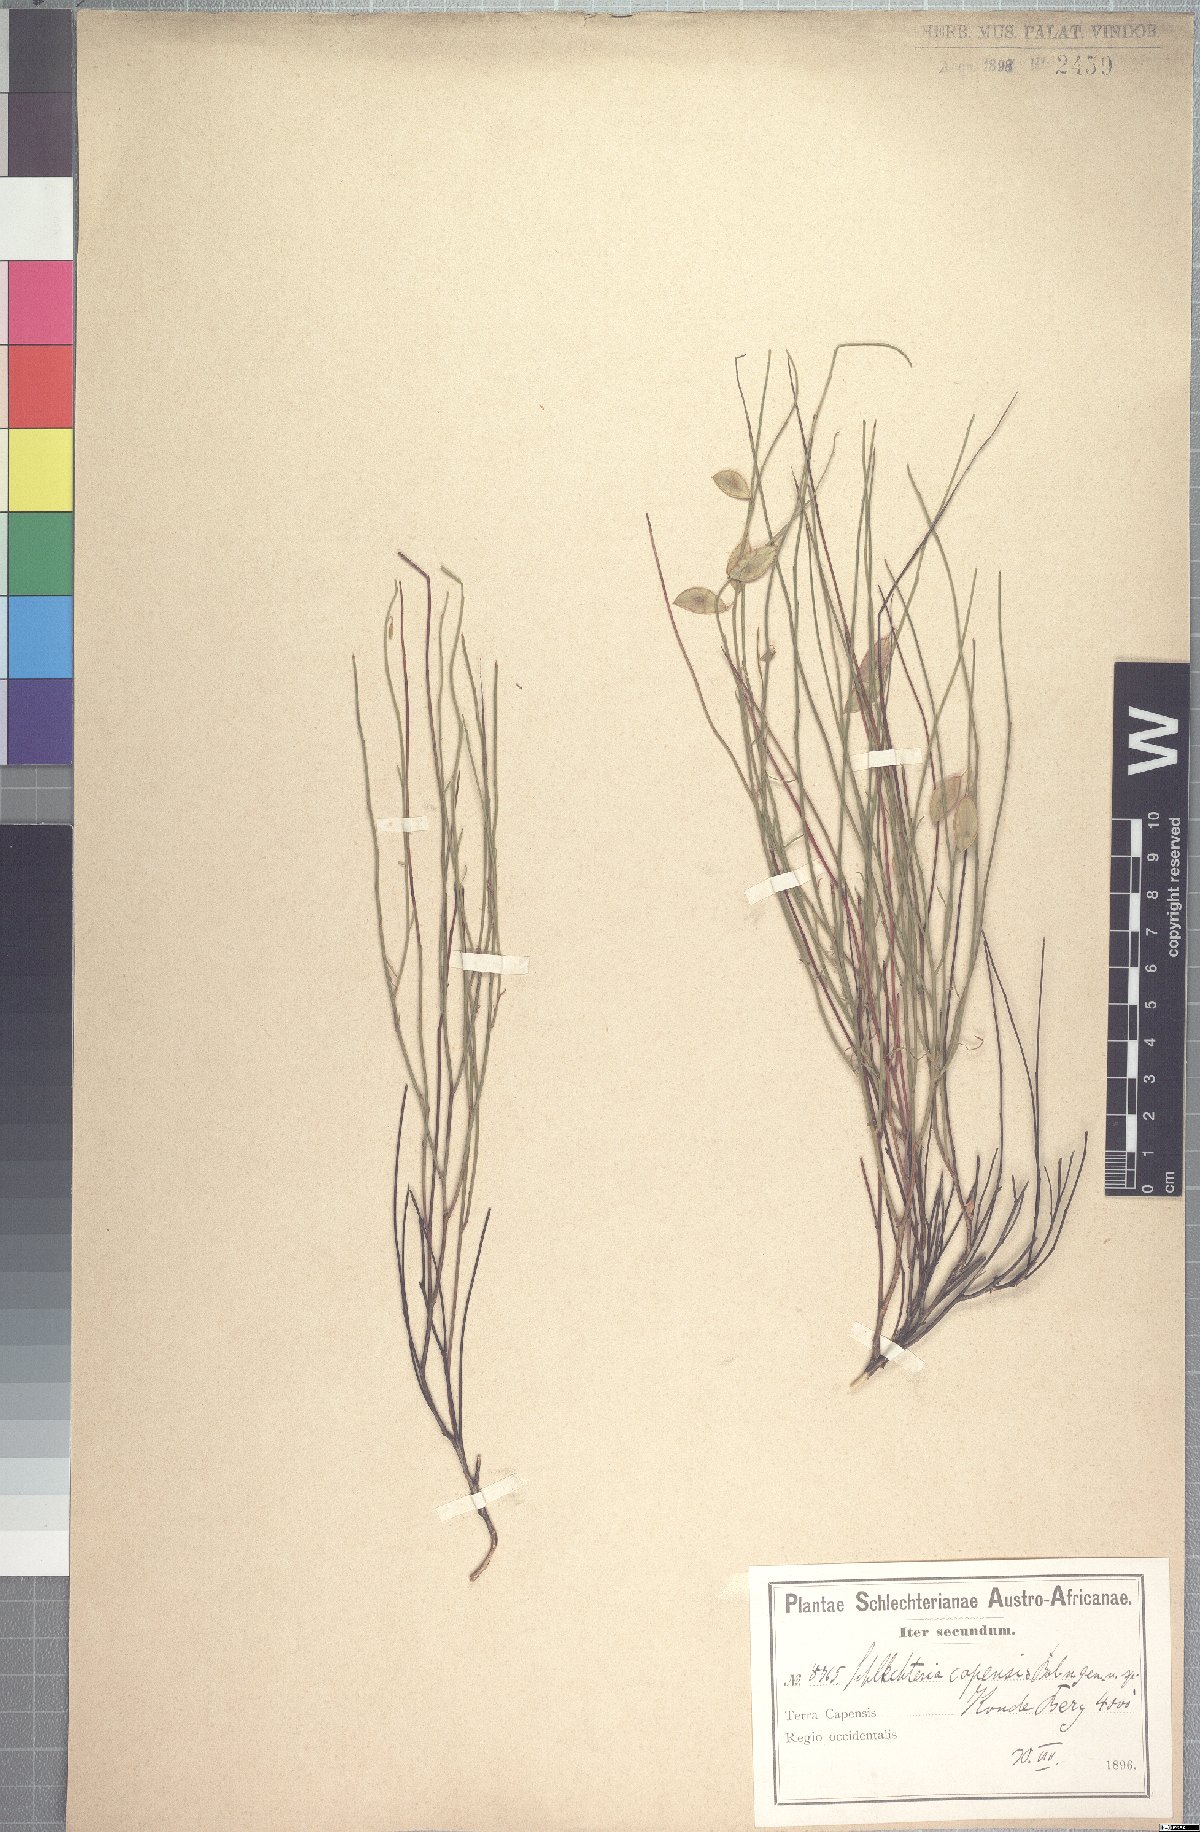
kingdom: Plantae
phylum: Tracheophyta
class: Magnoliopsida
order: Brassicales
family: Brassicaceae
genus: Heliophila
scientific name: Heliophila monosperma
